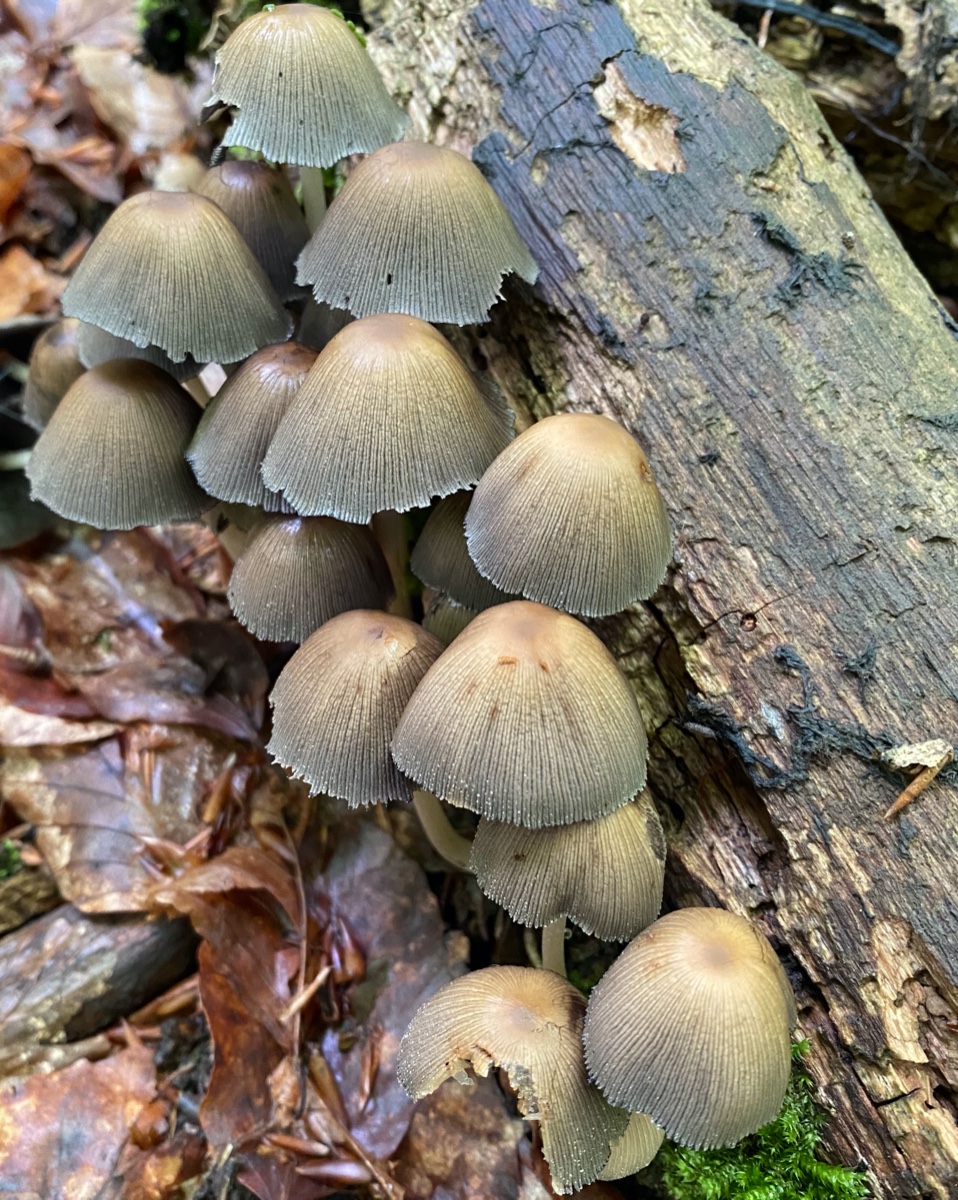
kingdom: Fungi
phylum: Basidiomycota
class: Agaricomycetes
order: Agaricales
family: Psathyrellaceae
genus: Coprinellus
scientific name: Coprinellus micaceus
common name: glimmer-blækhat
